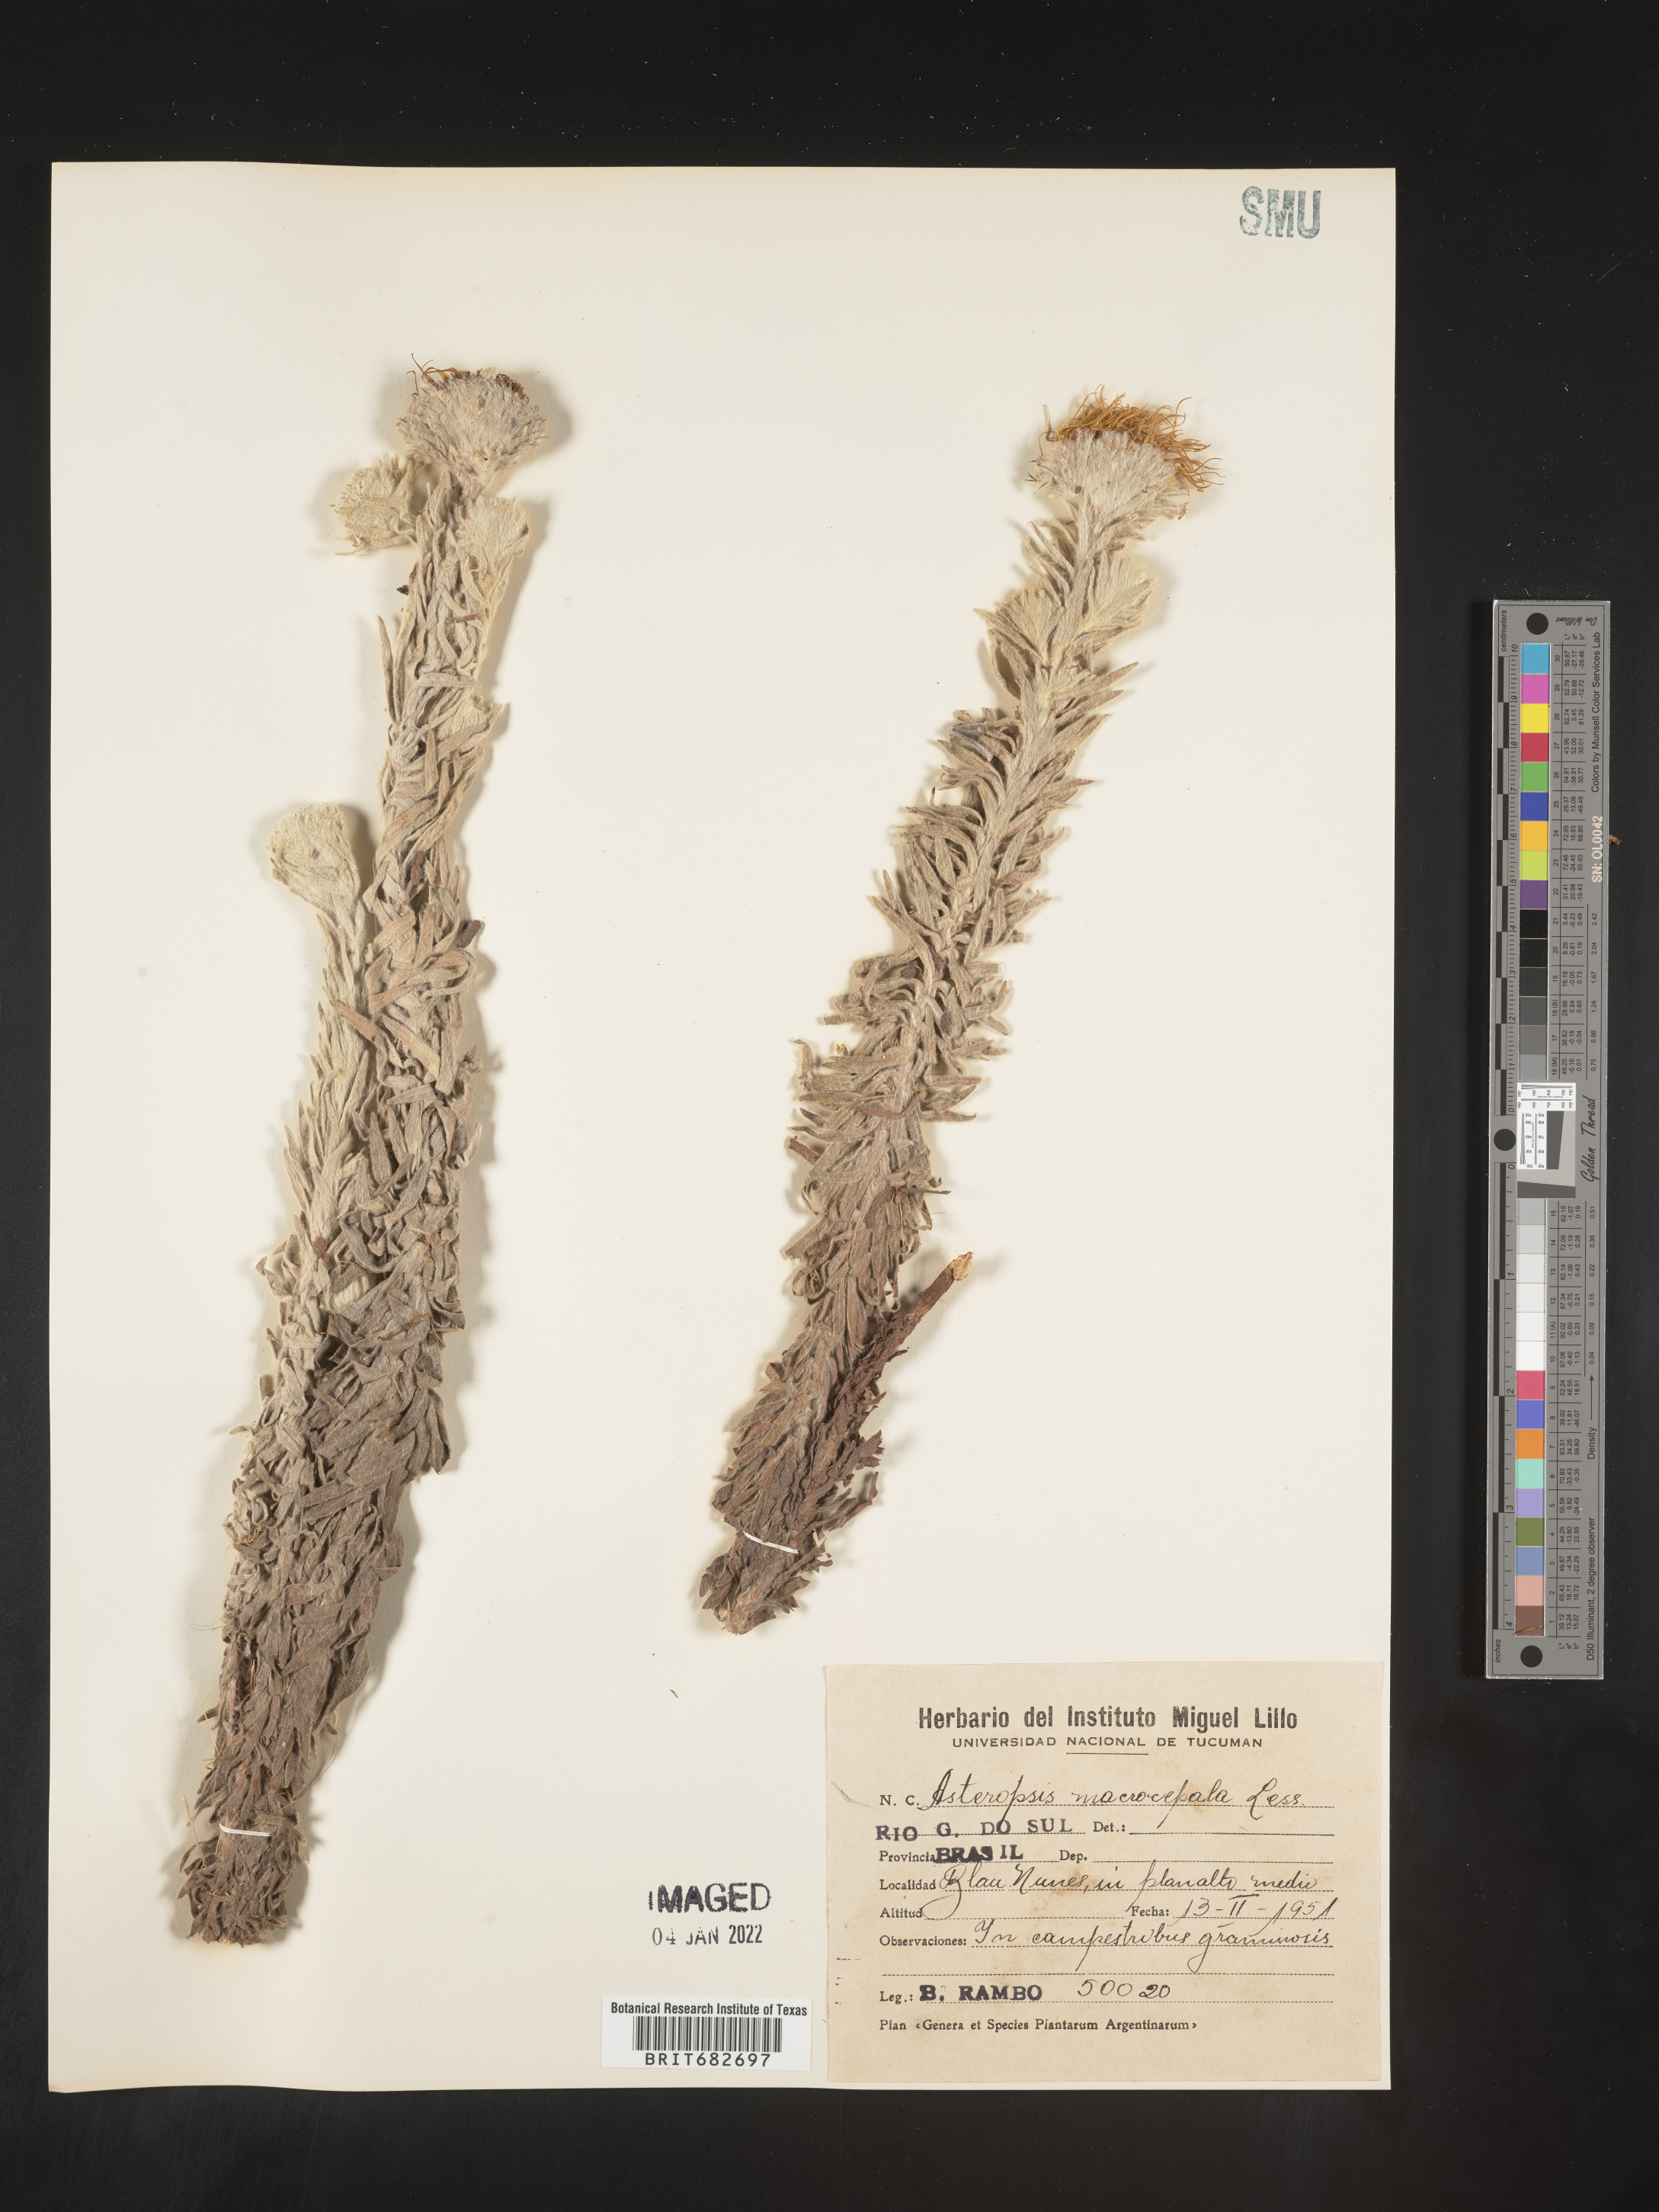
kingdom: Plantae
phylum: Tracheophyta
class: Magnoliopsida
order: Asterales
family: Asteraceae
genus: Podocoma
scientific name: Podocoma
